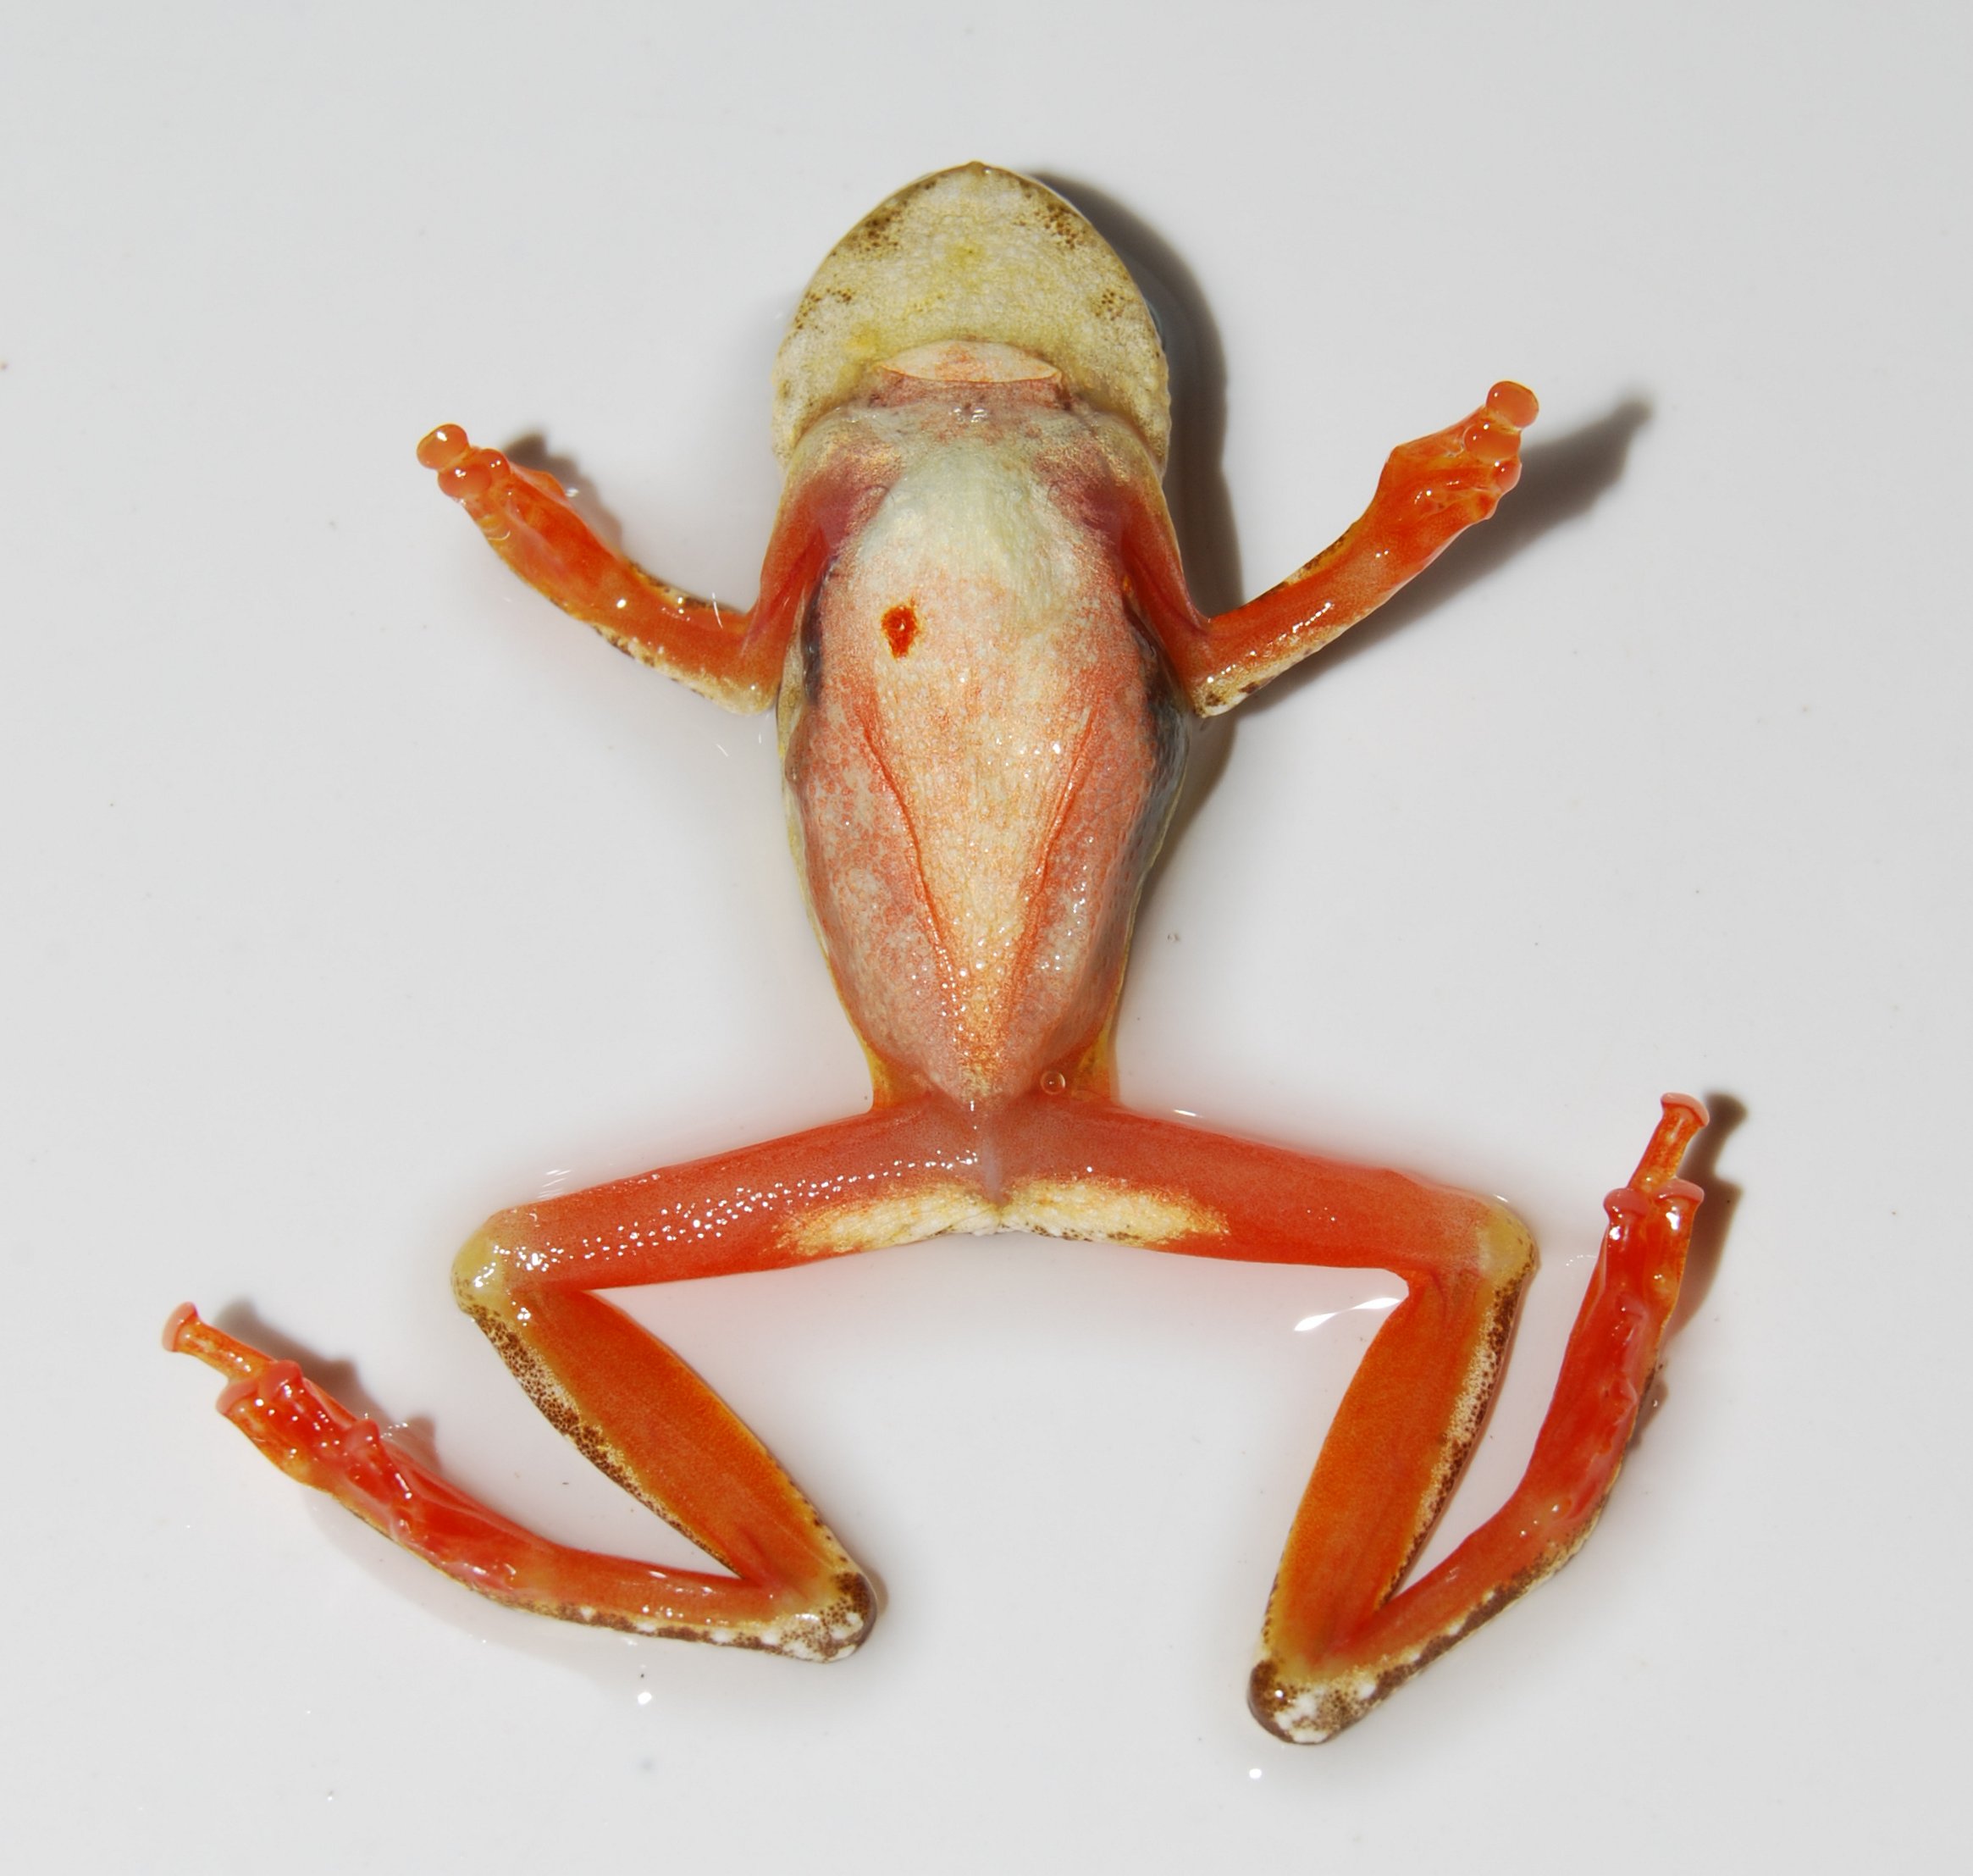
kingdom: Animalia
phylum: Chordata
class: Amphibia
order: Anura
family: Hyperoliidae
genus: Hyperolius
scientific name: Hyperolius marmoratus
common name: Painted reed frog
